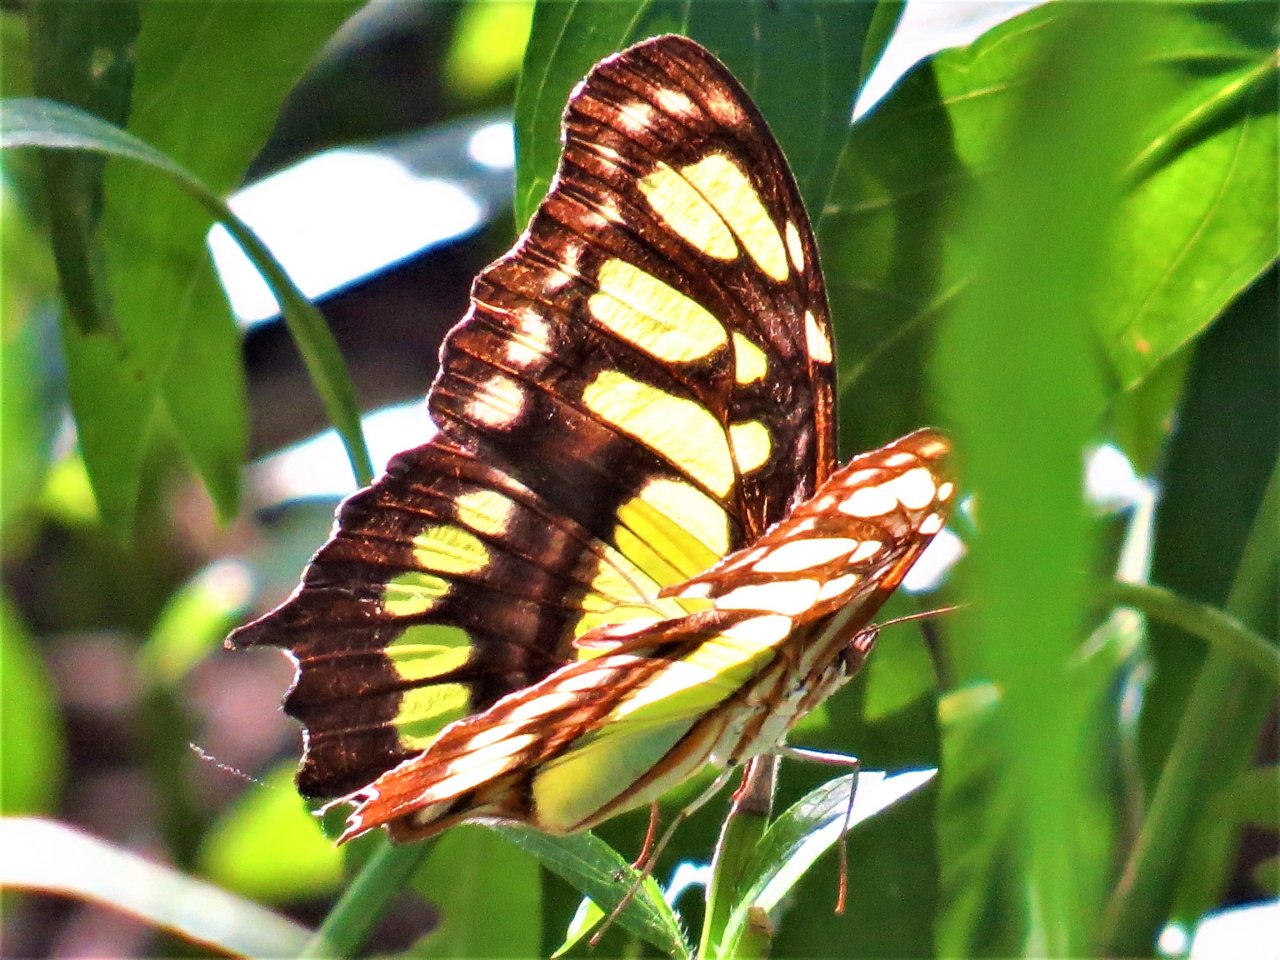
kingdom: Animalia
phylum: Arthropoda
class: Insecta
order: Lepidoptera
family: Nymphalidae
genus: Siproeta
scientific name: Siproeta stelenes
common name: Malachite
